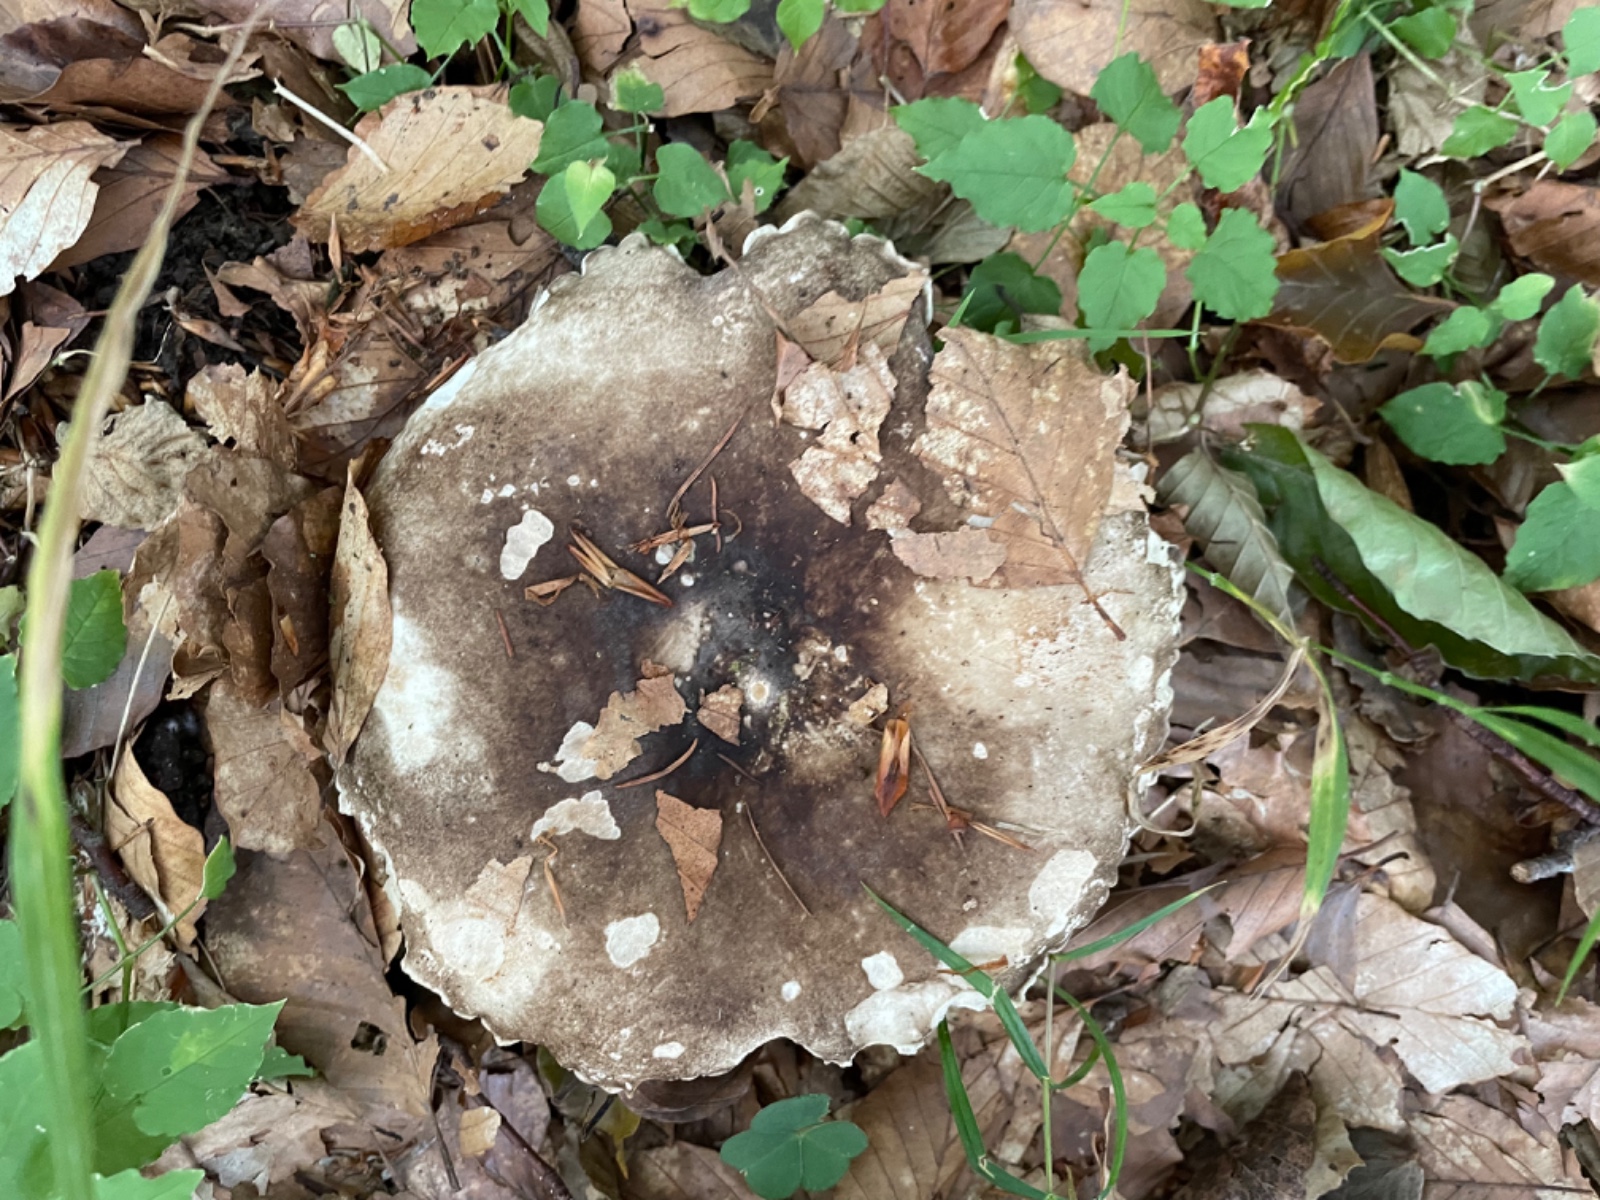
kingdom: Fungi
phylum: Basidiomycota
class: Agaricomycetes
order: Russulales
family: Russulaceae
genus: Russula
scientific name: Russula adusta
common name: sværtende skørhat
